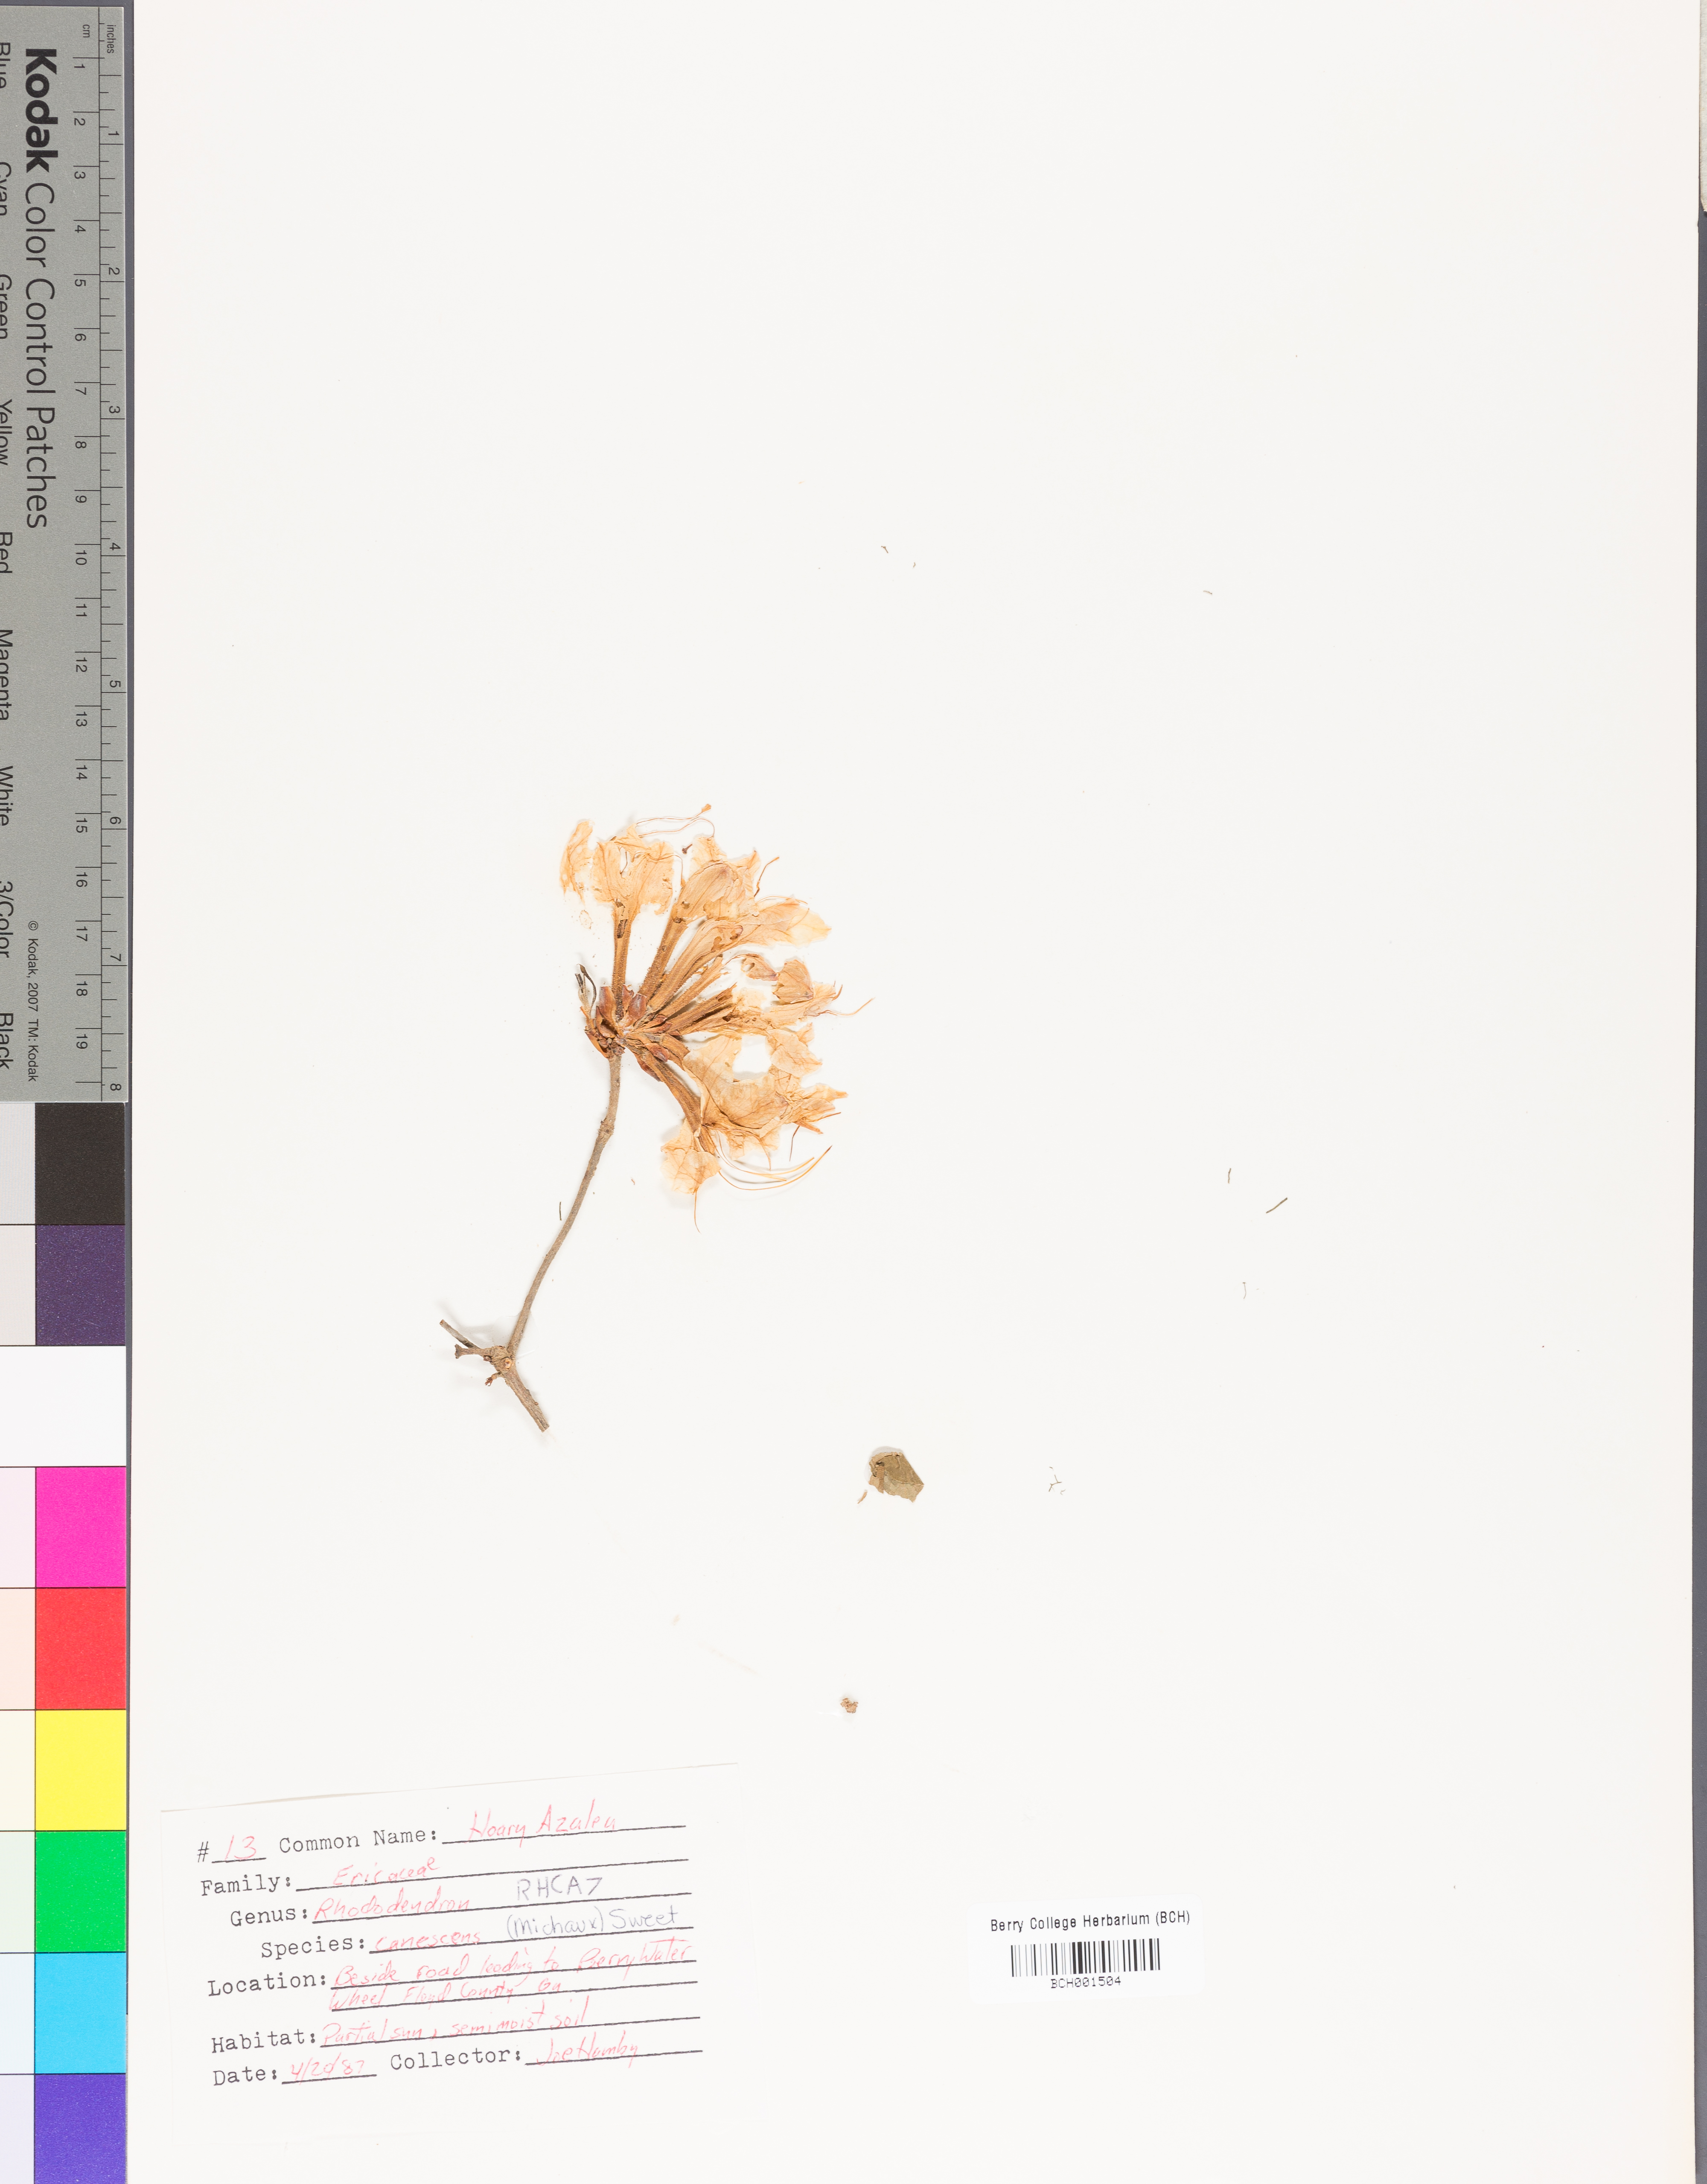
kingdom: Plantae
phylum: Tracheophyta
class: Magnoliopsida
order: Ericales
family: Ericaceae
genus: Rhododendron
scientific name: Rhododendron canescens
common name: Mountain azalea
